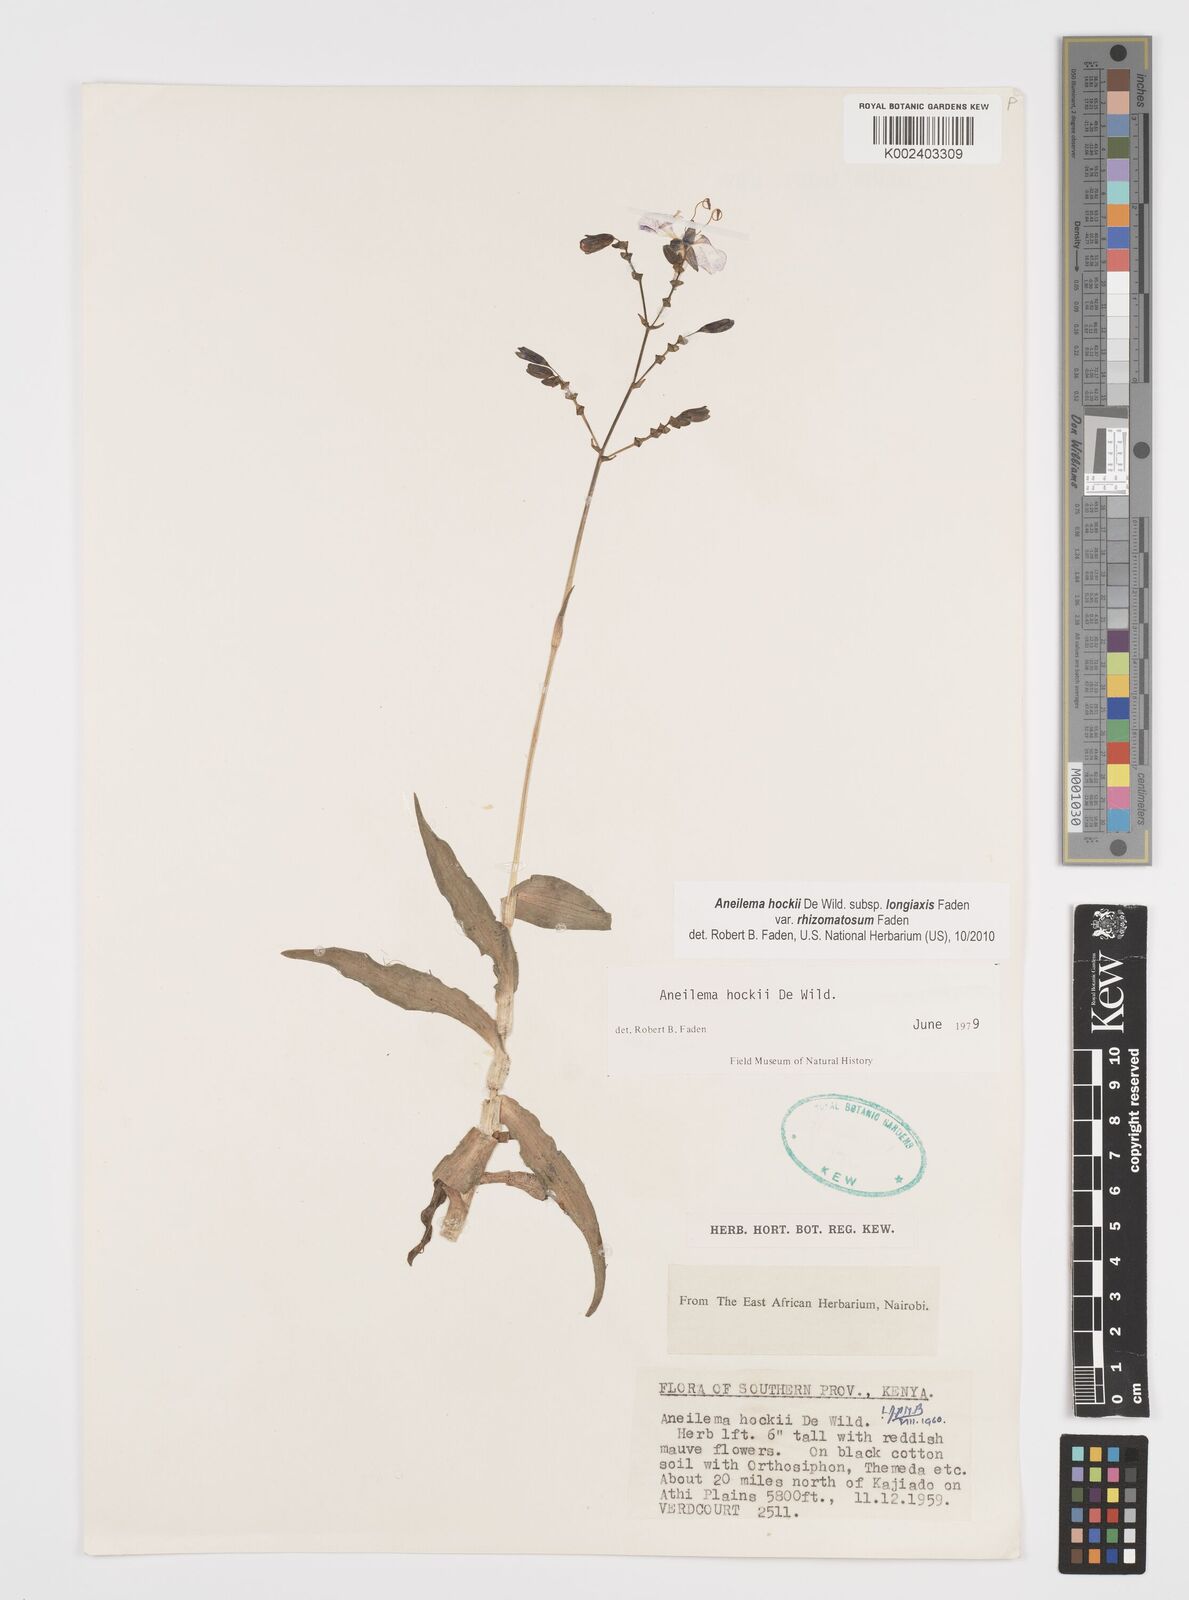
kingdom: Plantae
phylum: Tracheophyta
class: Liliopsida
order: Commelinales
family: Commelinaceae
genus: Aneilema
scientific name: Aneilema hockii
